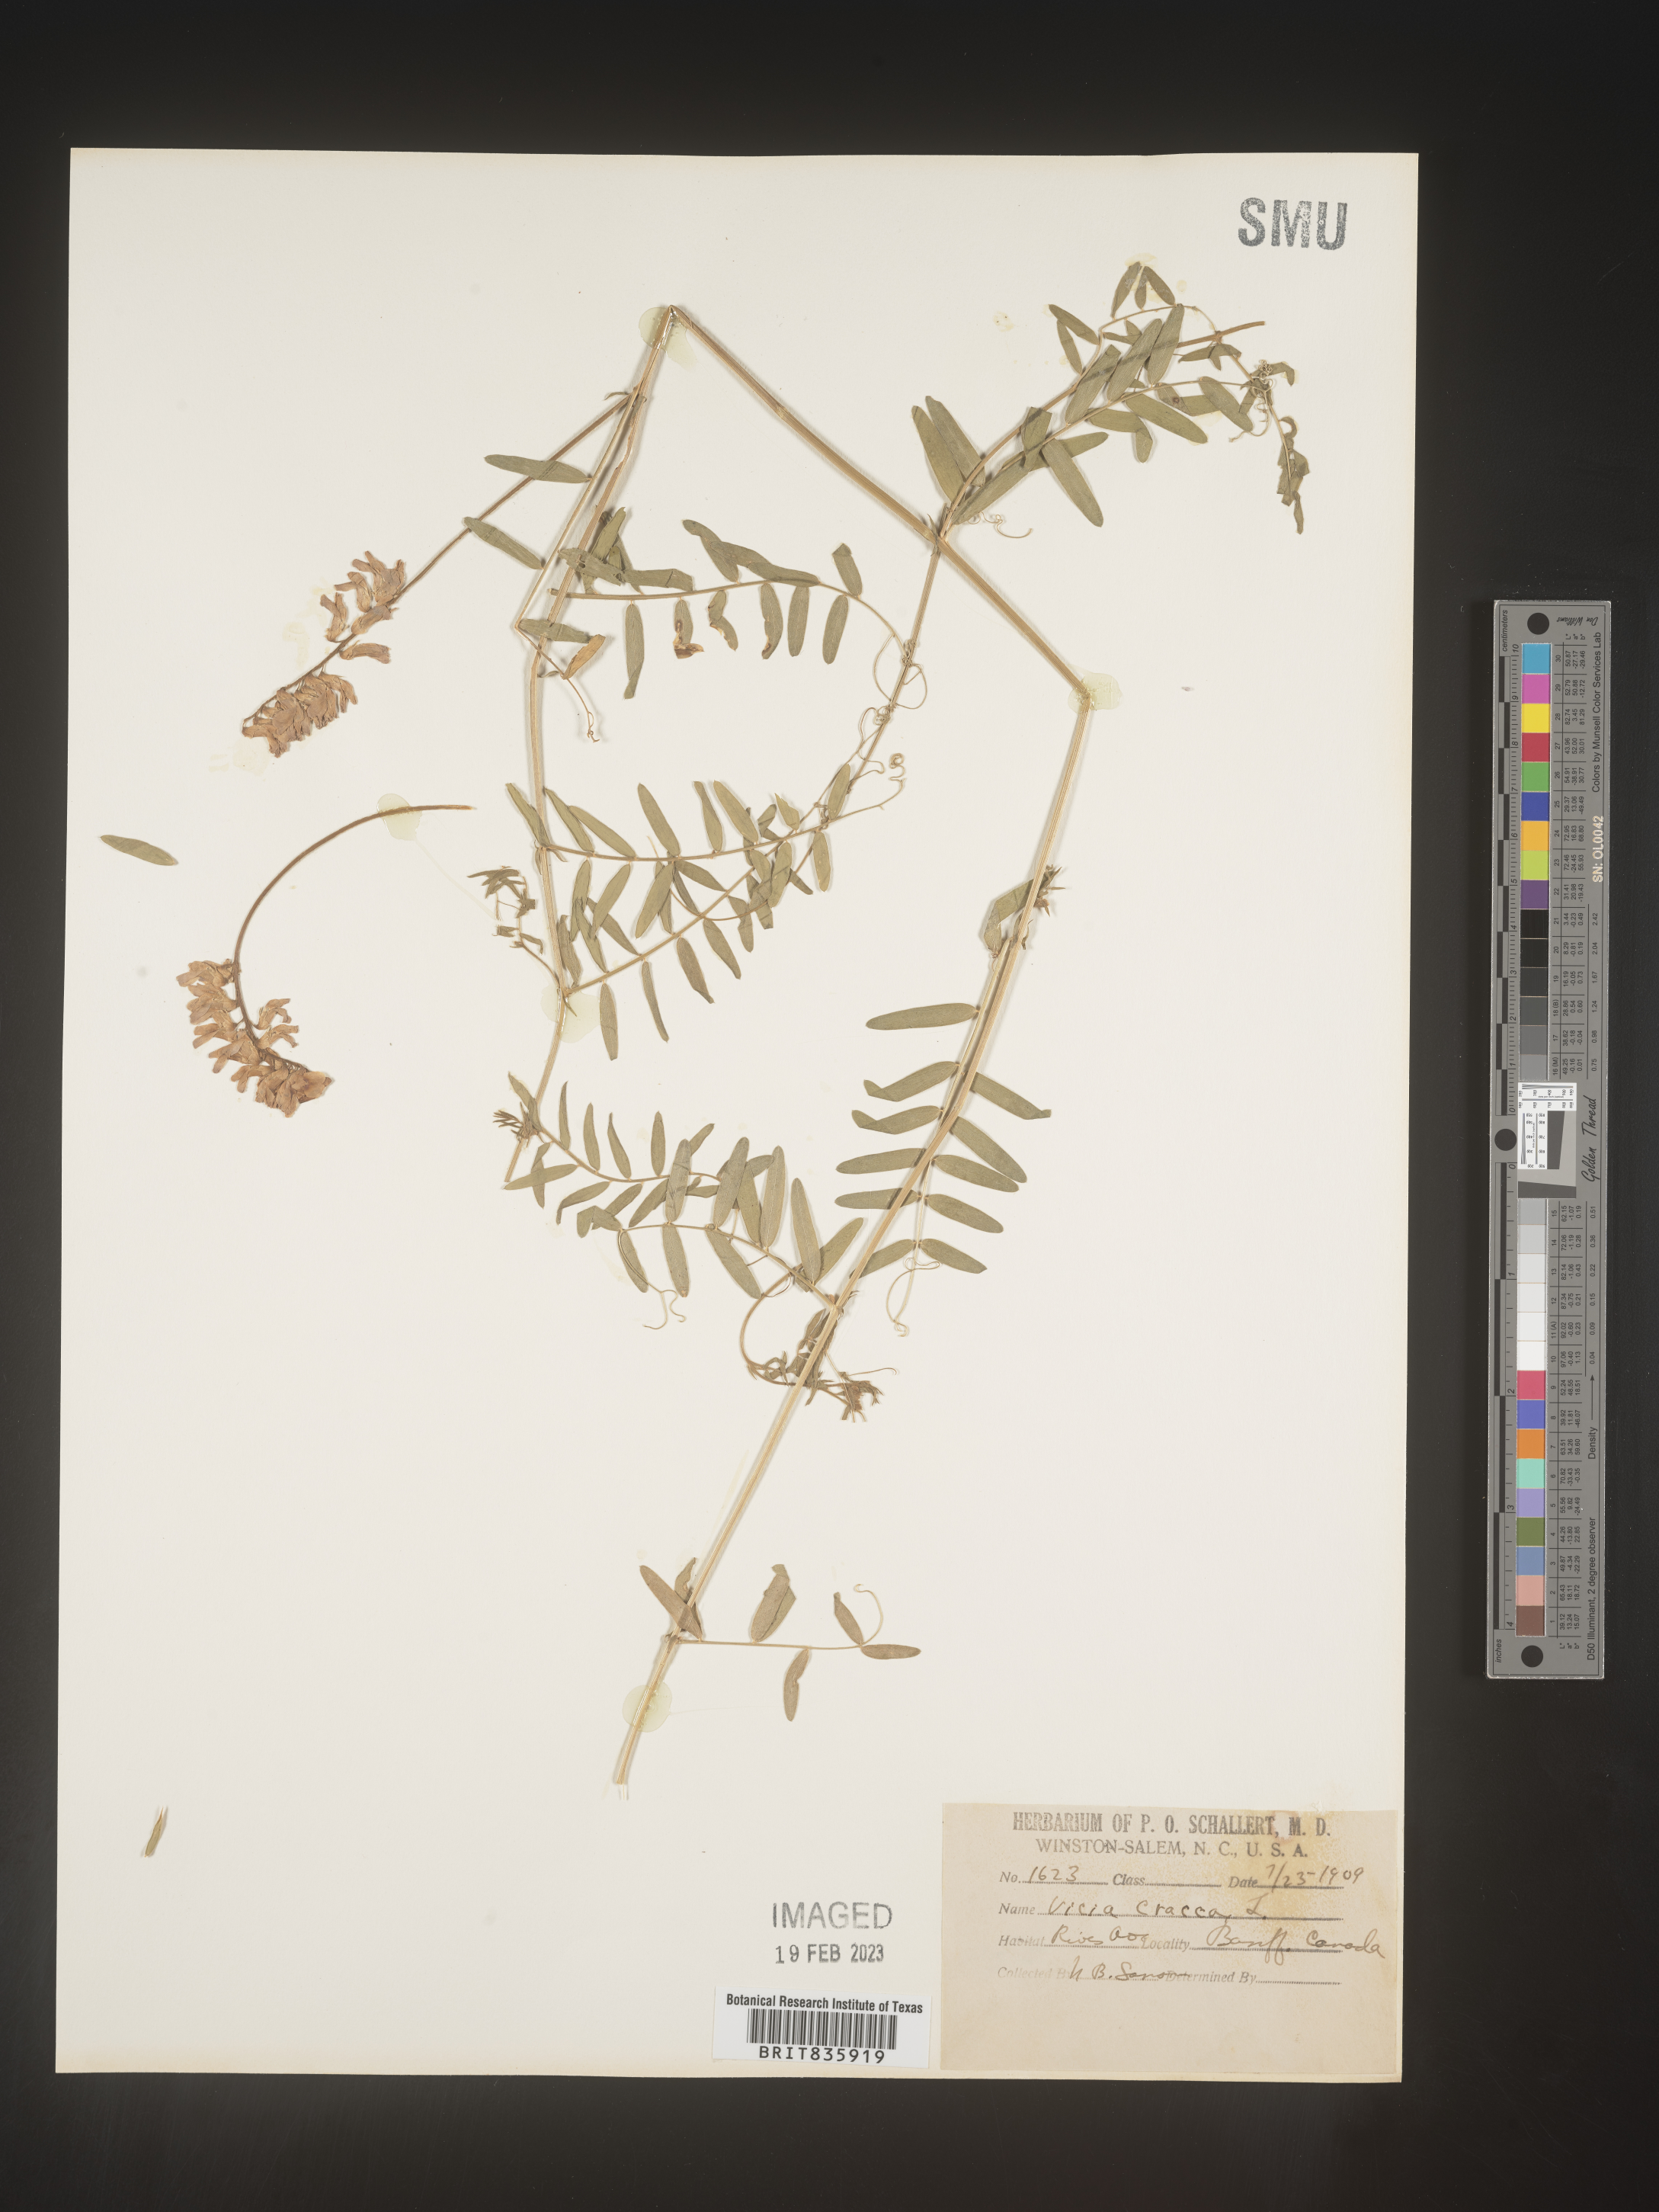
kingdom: Plantae
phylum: Tracheophyta
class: Magnoliopsida
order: Fabales
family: Fabaceae
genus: Vicia
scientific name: Vicia cracca
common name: Bird vetch
